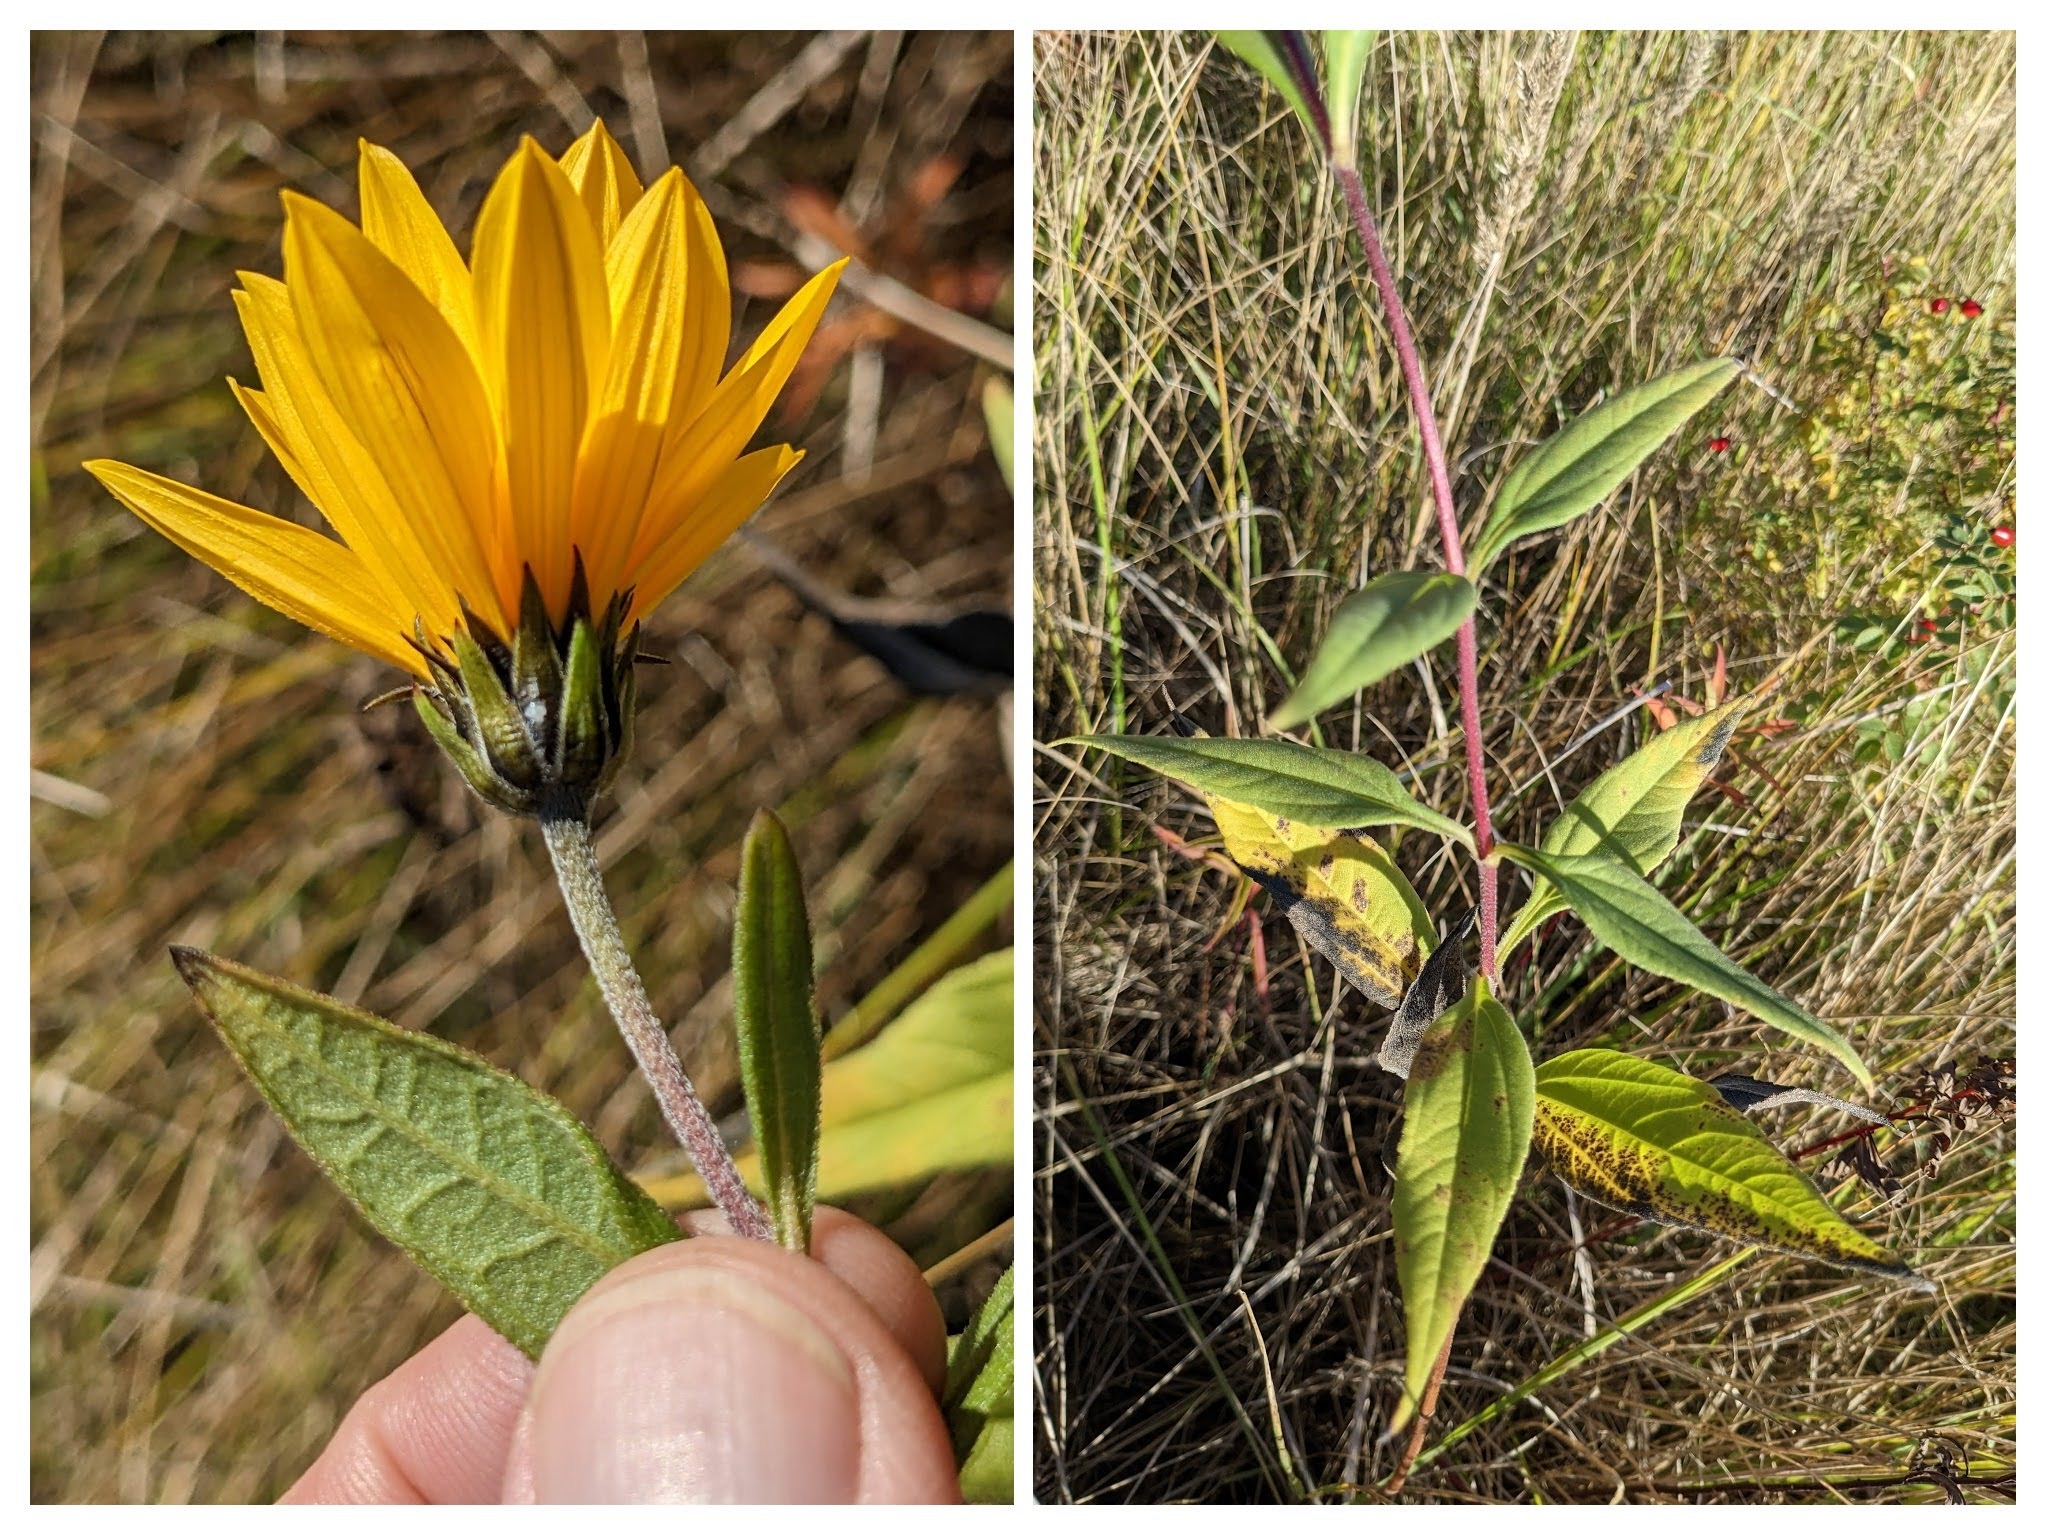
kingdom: Plantae
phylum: Tracheophyta
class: Magnoliopsida
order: Asterales
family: Asteraceae
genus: Helianthus
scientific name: Helianthus laetiflorus
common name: Staude-solsikke × jordskok
